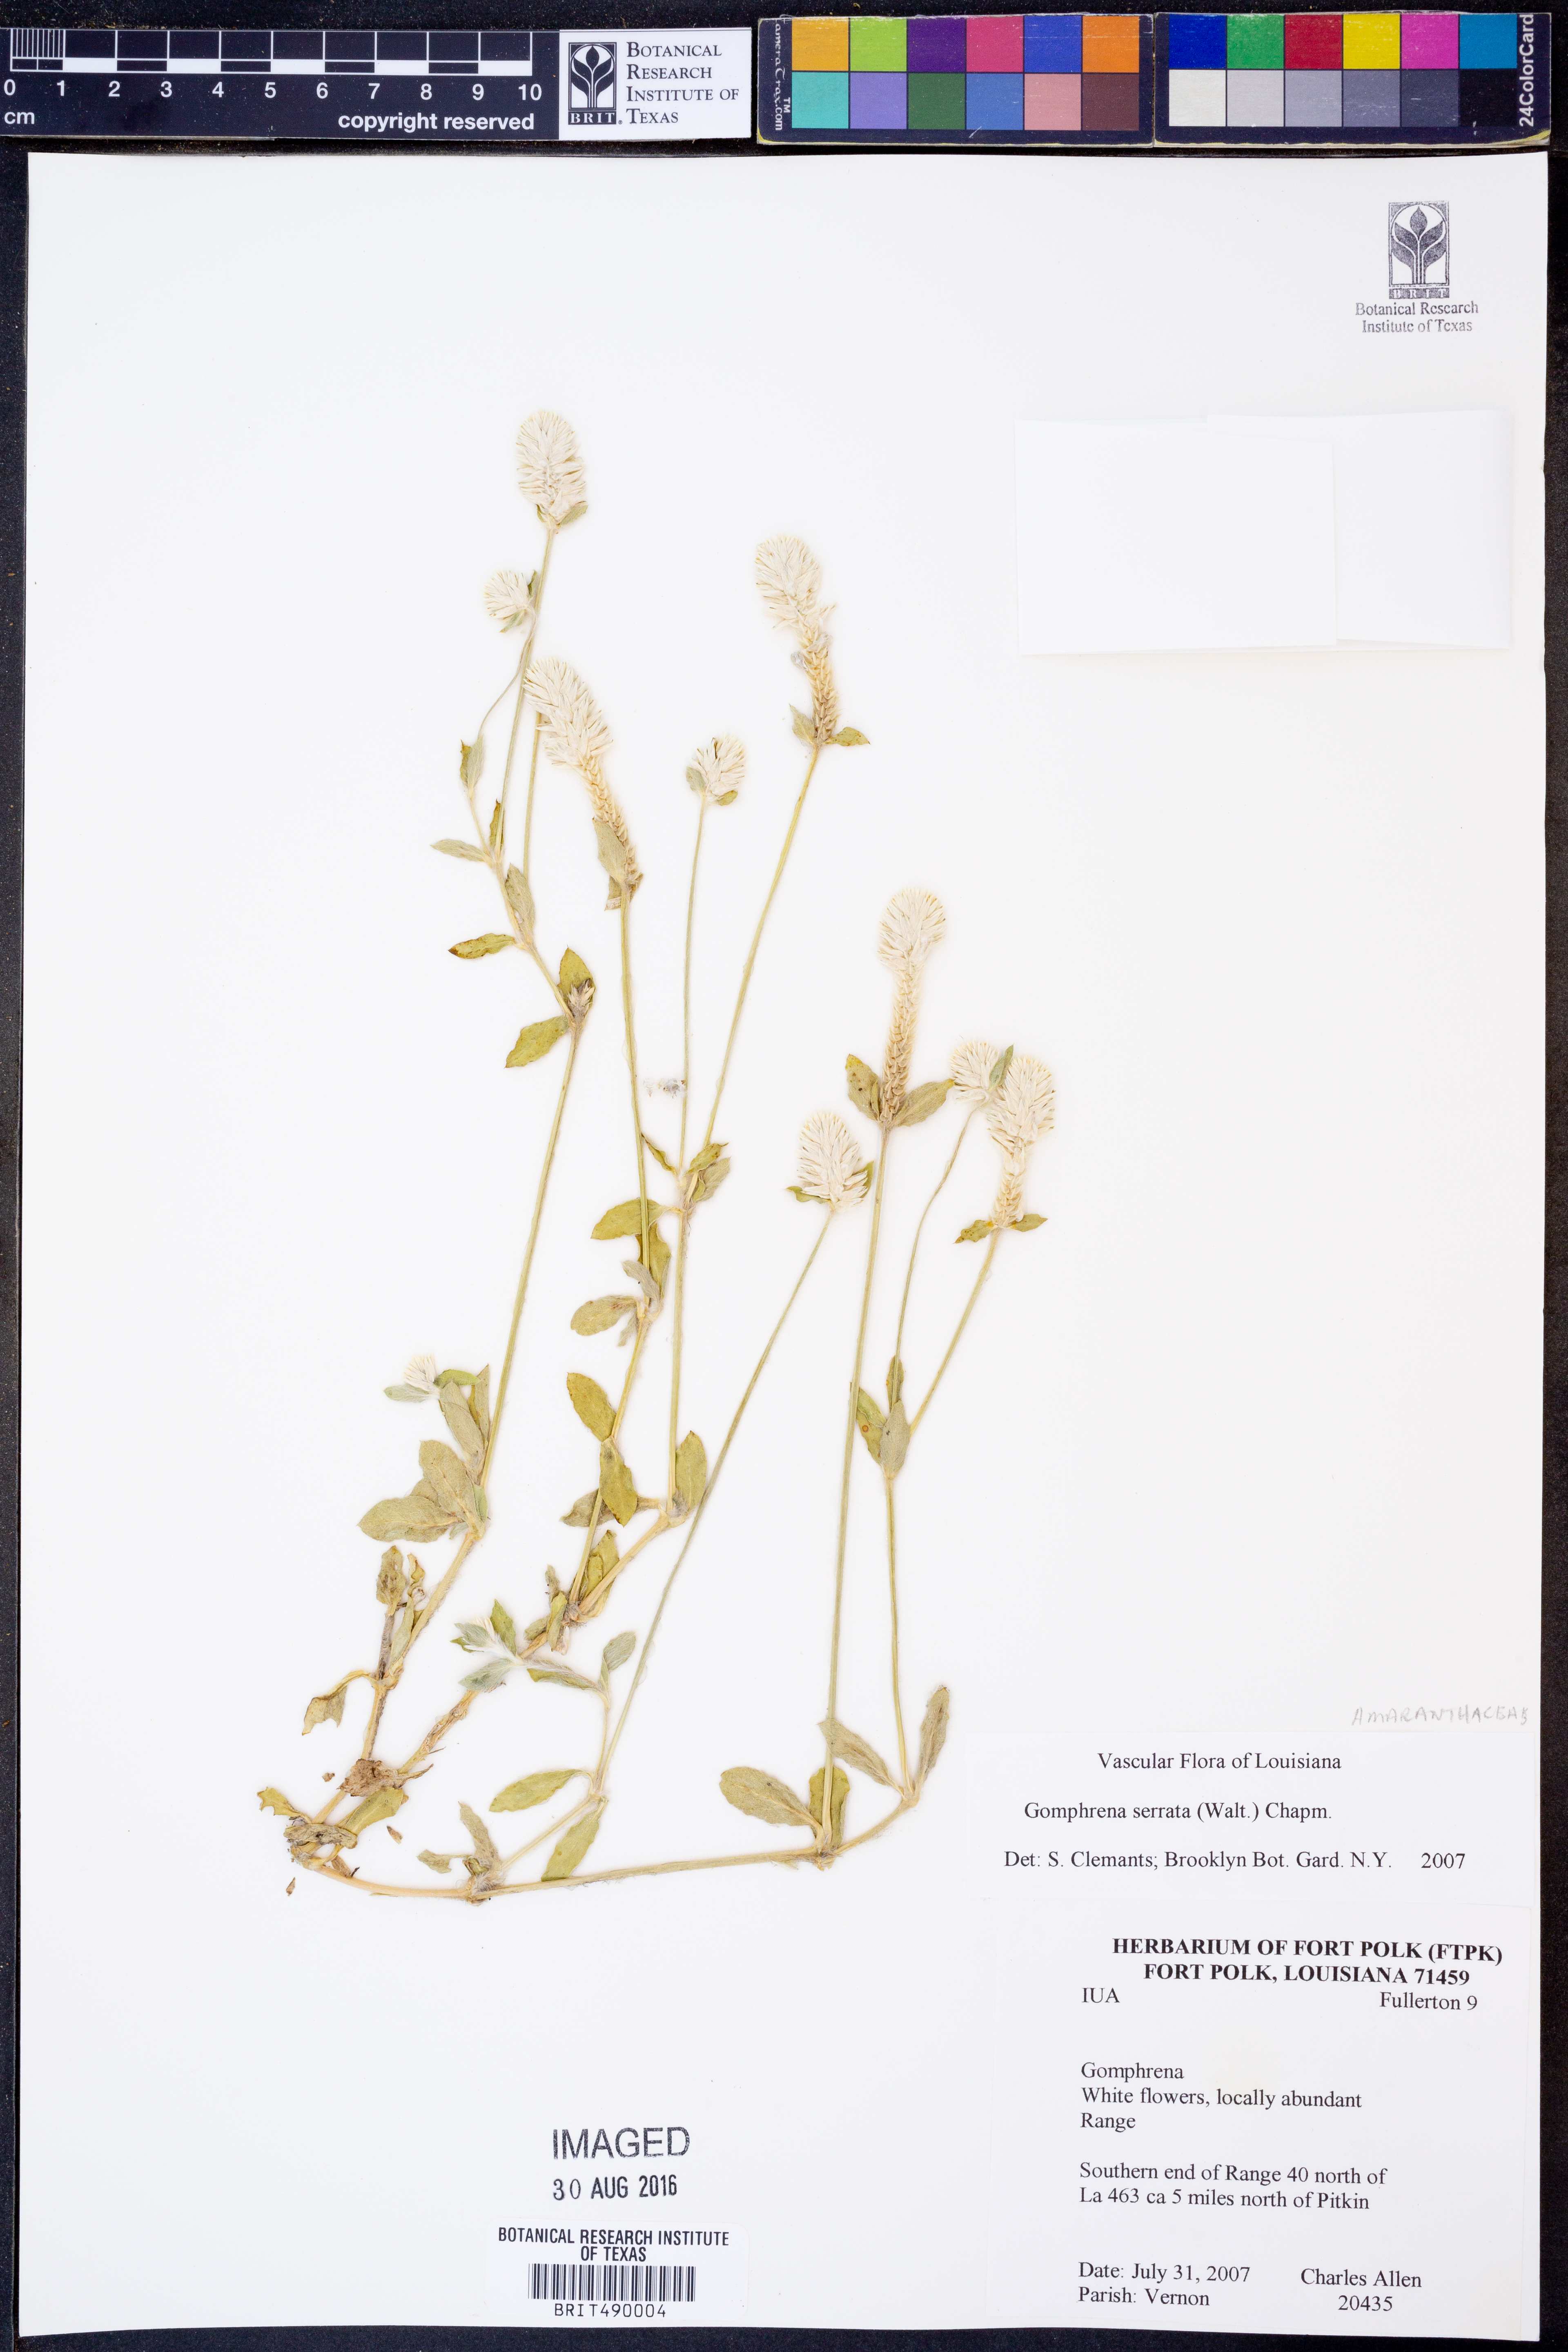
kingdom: Plantae
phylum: Tracheophyta
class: Magnoliopsida
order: Caryophyllales
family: Amaranthaceae
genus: Gomphrena
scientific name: Gomphrena serrata
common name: Arrasa con todo
